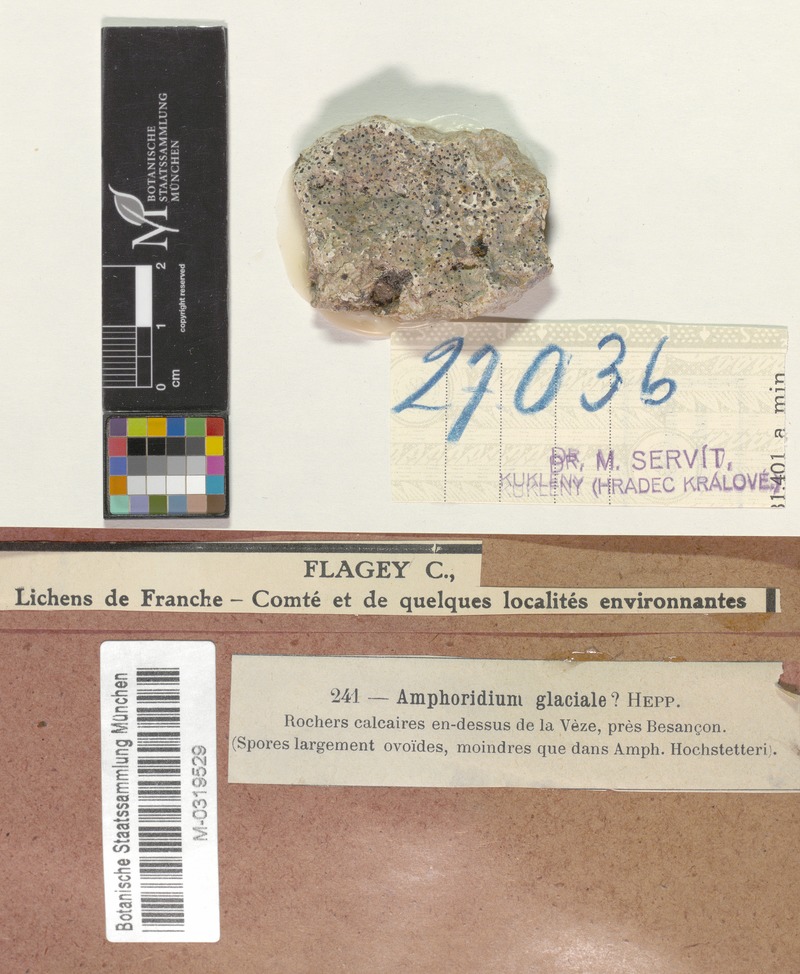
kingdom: Fungi
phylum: Ascomycota
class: Eurotiomycetes
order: Verrucariales
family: Verrucariaceae
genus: Verrucaria
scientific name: Verrucaria hochstetteri
